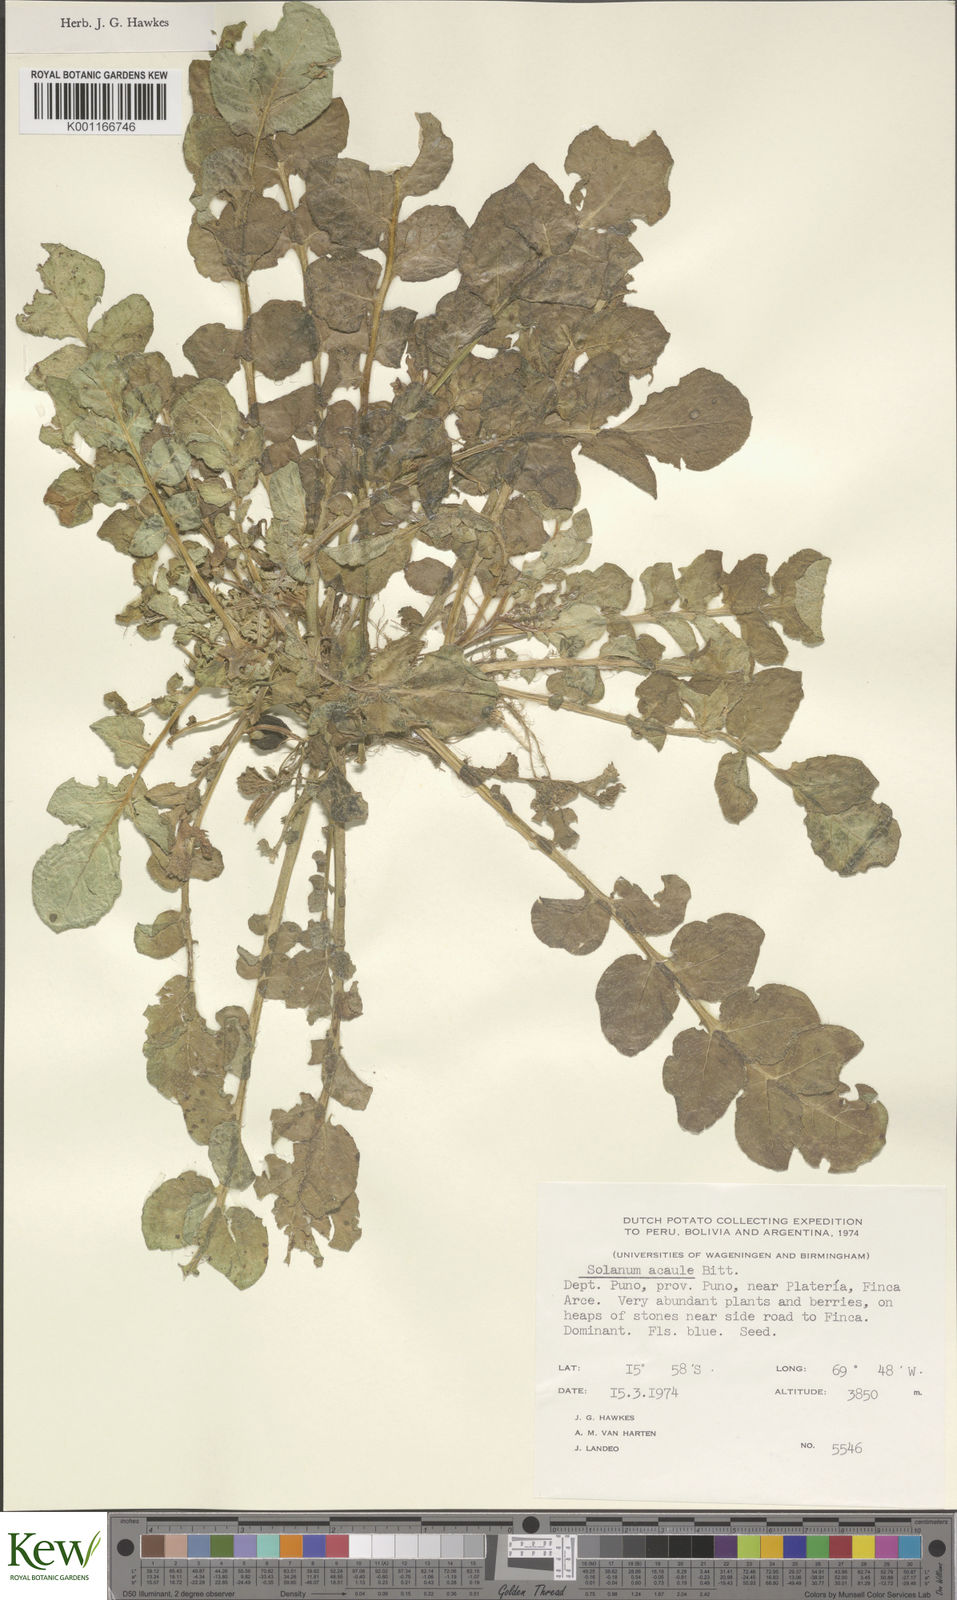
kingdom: Plantae
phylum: Tracheophyta
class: Magnoliopsida
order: Solanales
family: Solanaceae
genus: Solanum
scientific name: Solanum acaule
